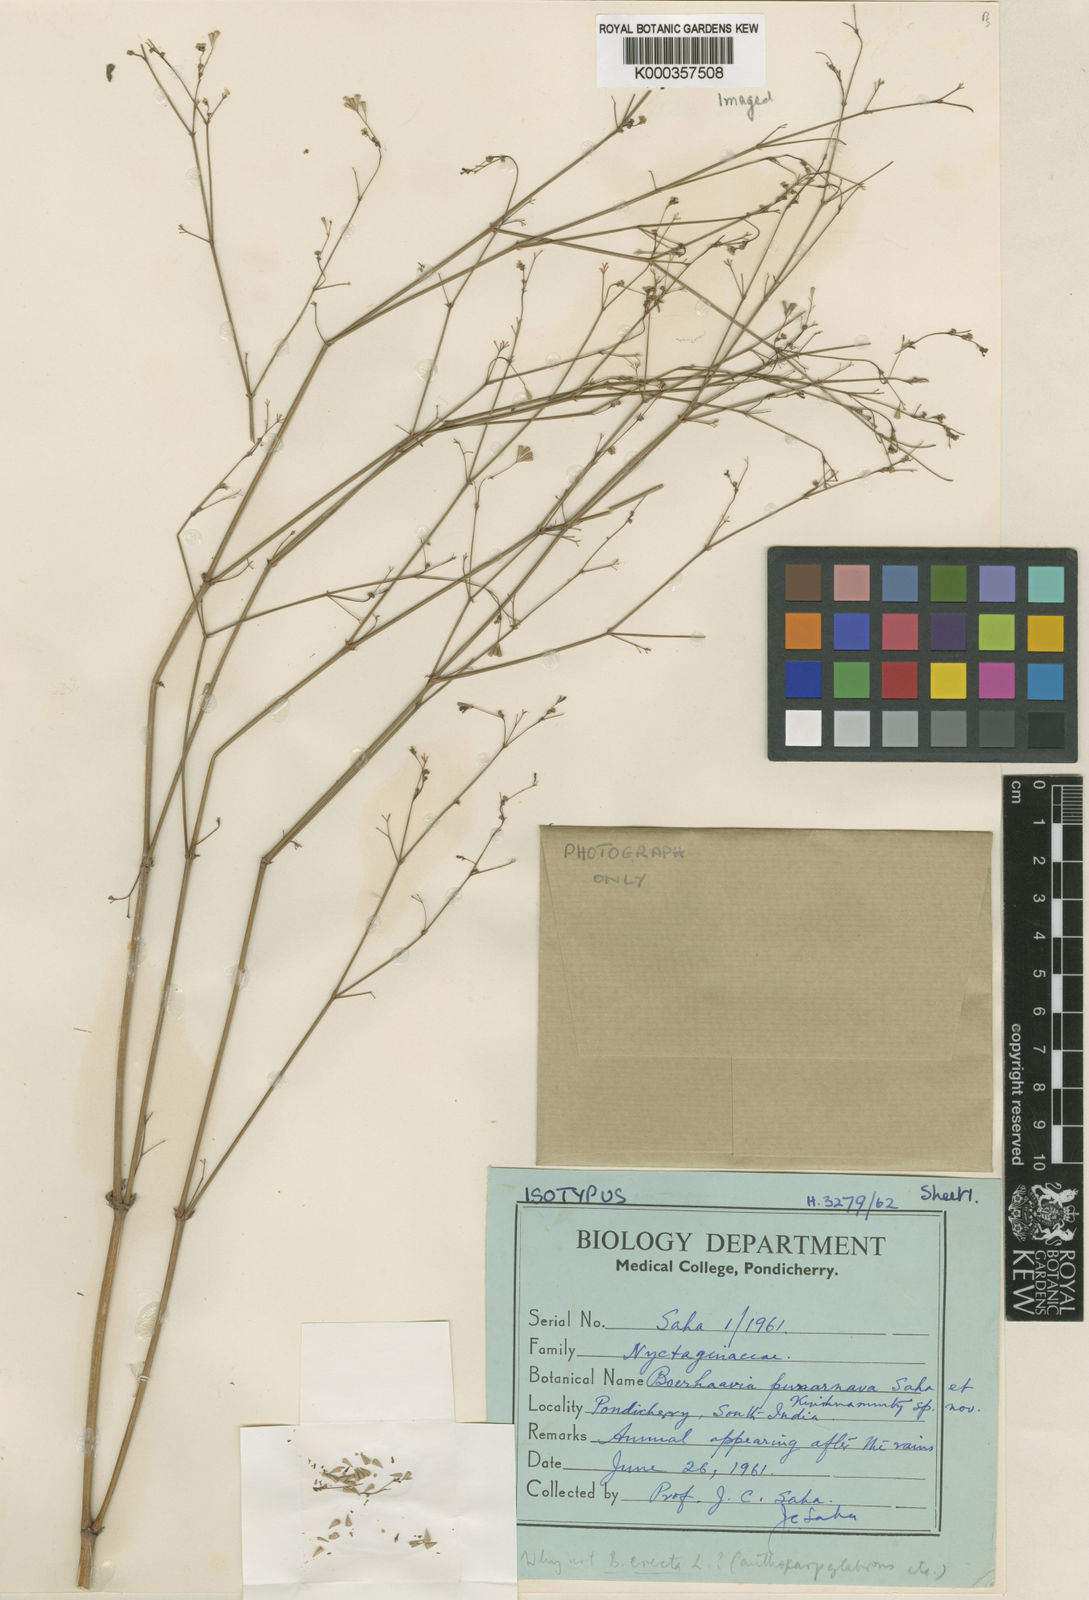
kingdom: Plantae
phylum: Tracheophyta
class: Magnoliopsida
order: Caryophyllales
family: Nyctaginaceae
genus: Boerhavia
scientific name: Boerhavia erecta
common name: Erect spiderling
